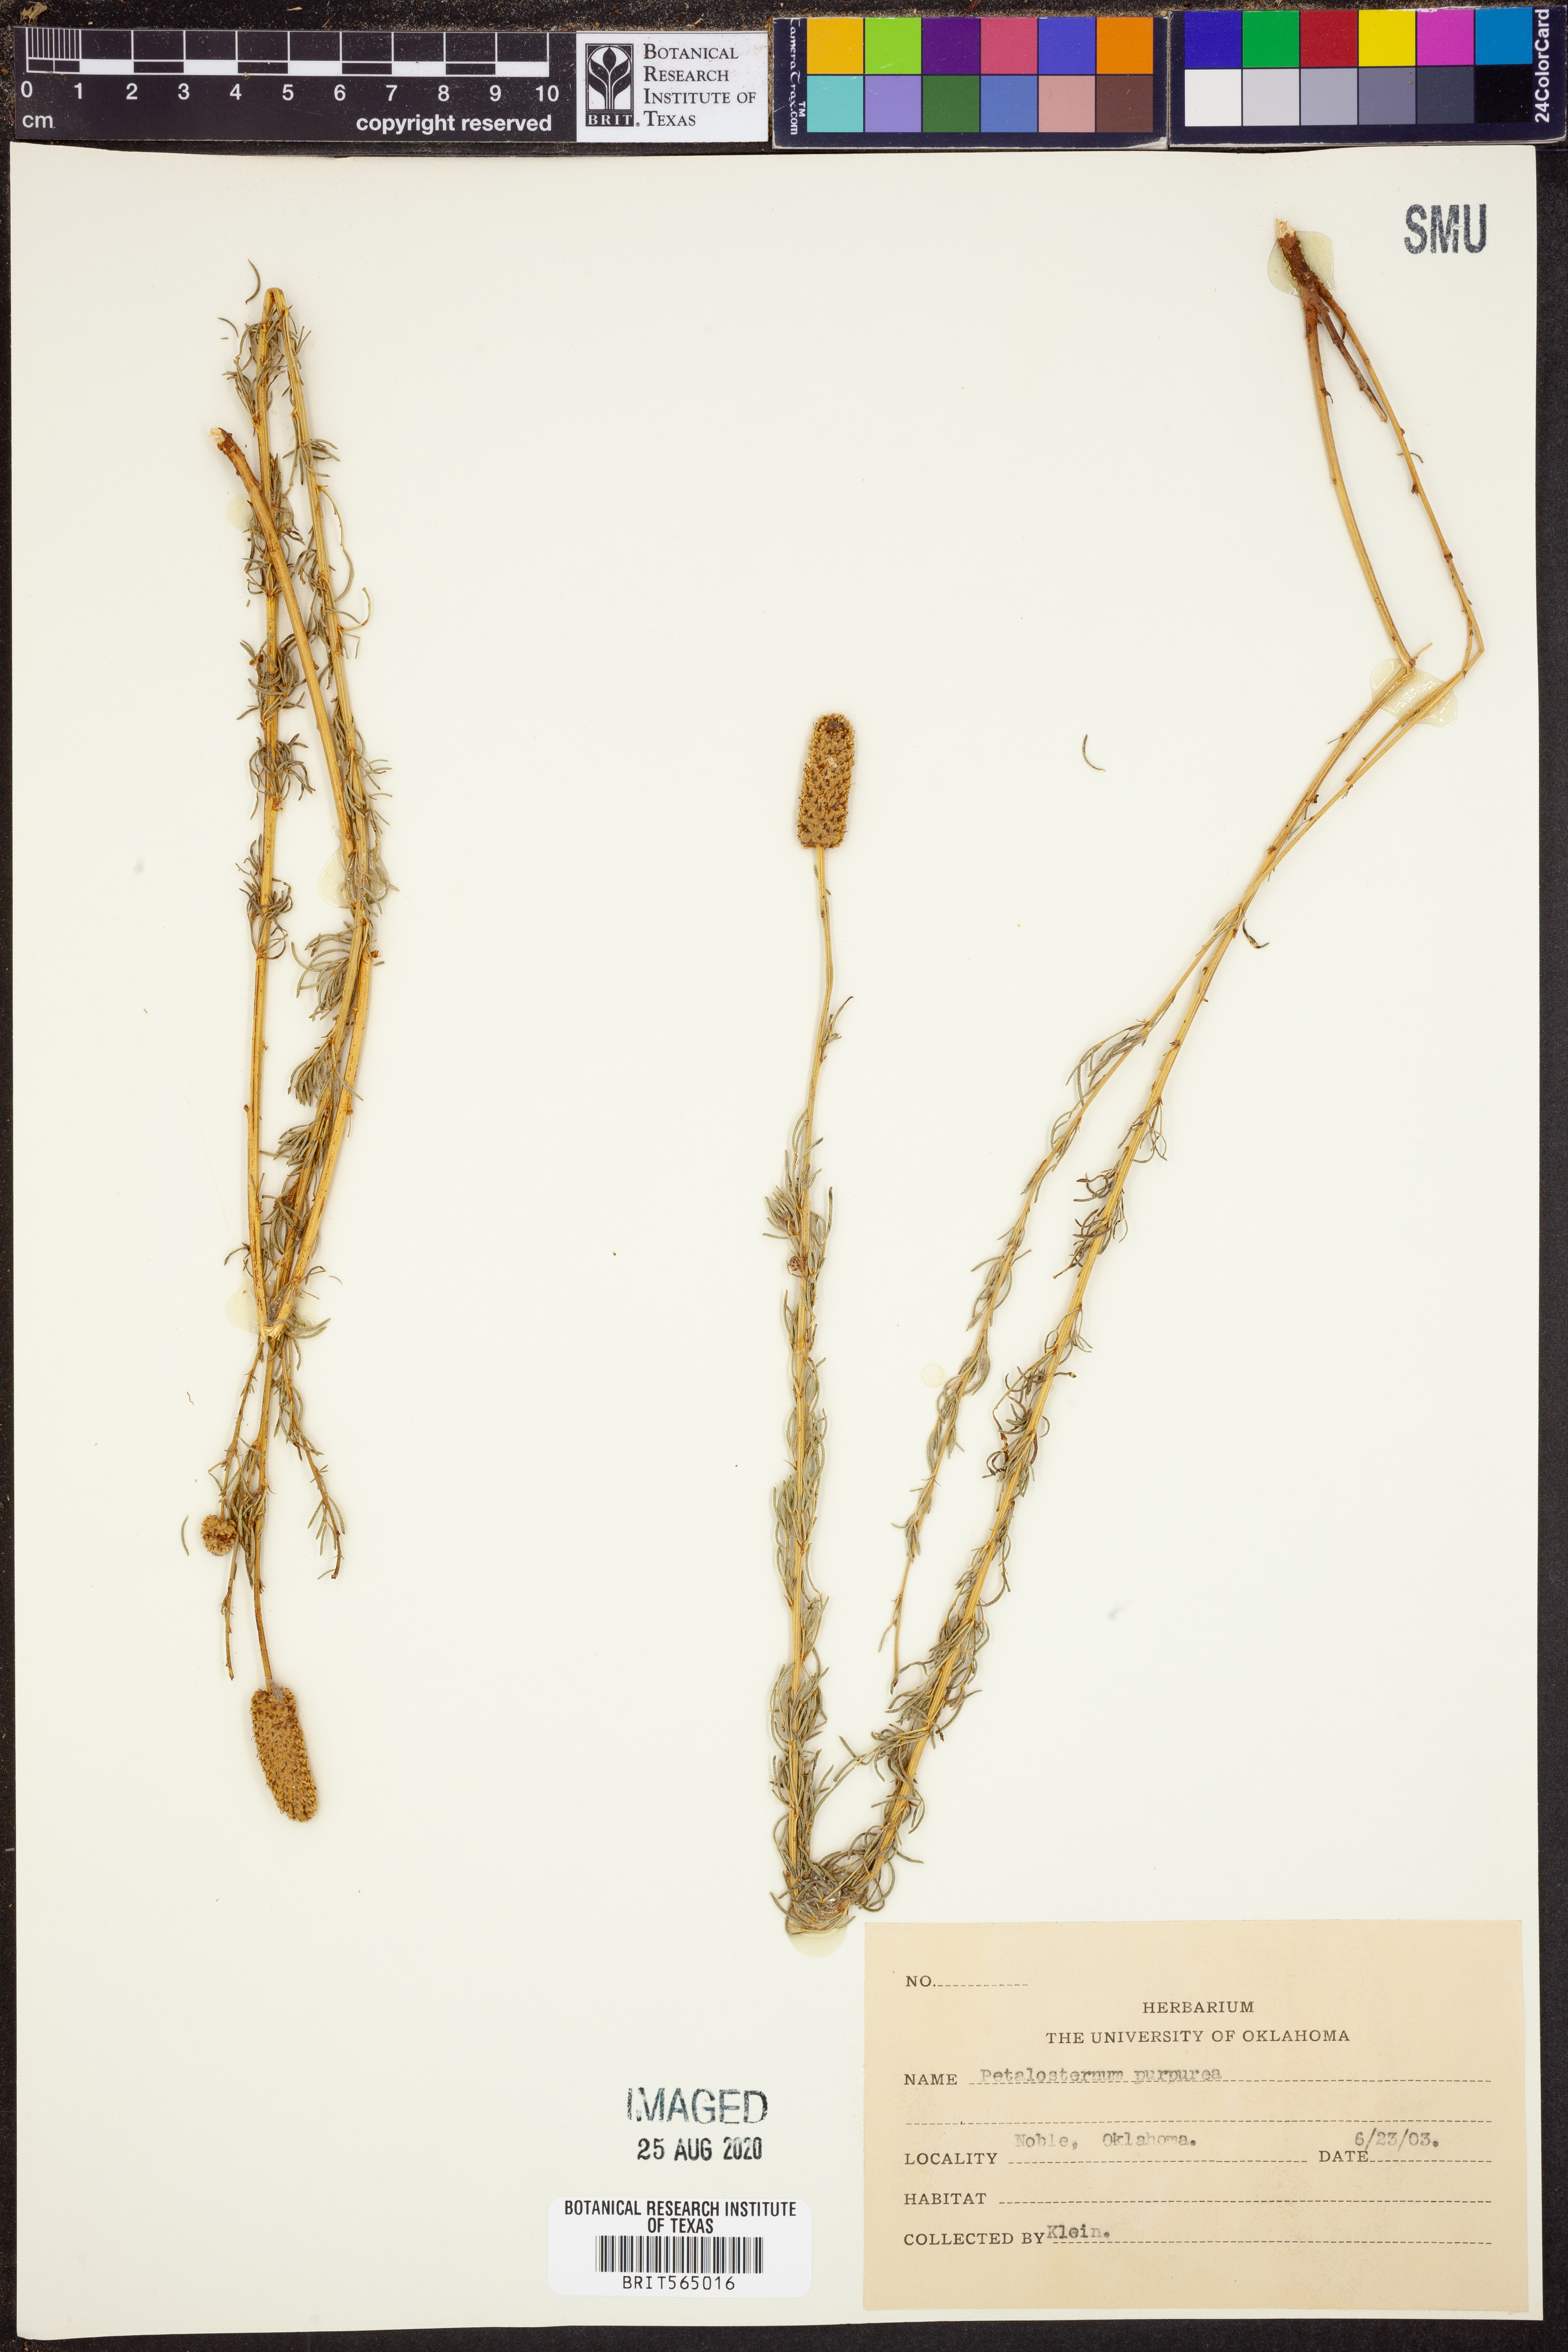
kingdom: Plantae
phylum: Tracheophyta
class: Magnoliopsida
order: Fabales
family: Fabaceae
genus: Dalea
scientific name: Dalea purpurea
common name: Purple prairie-clover
